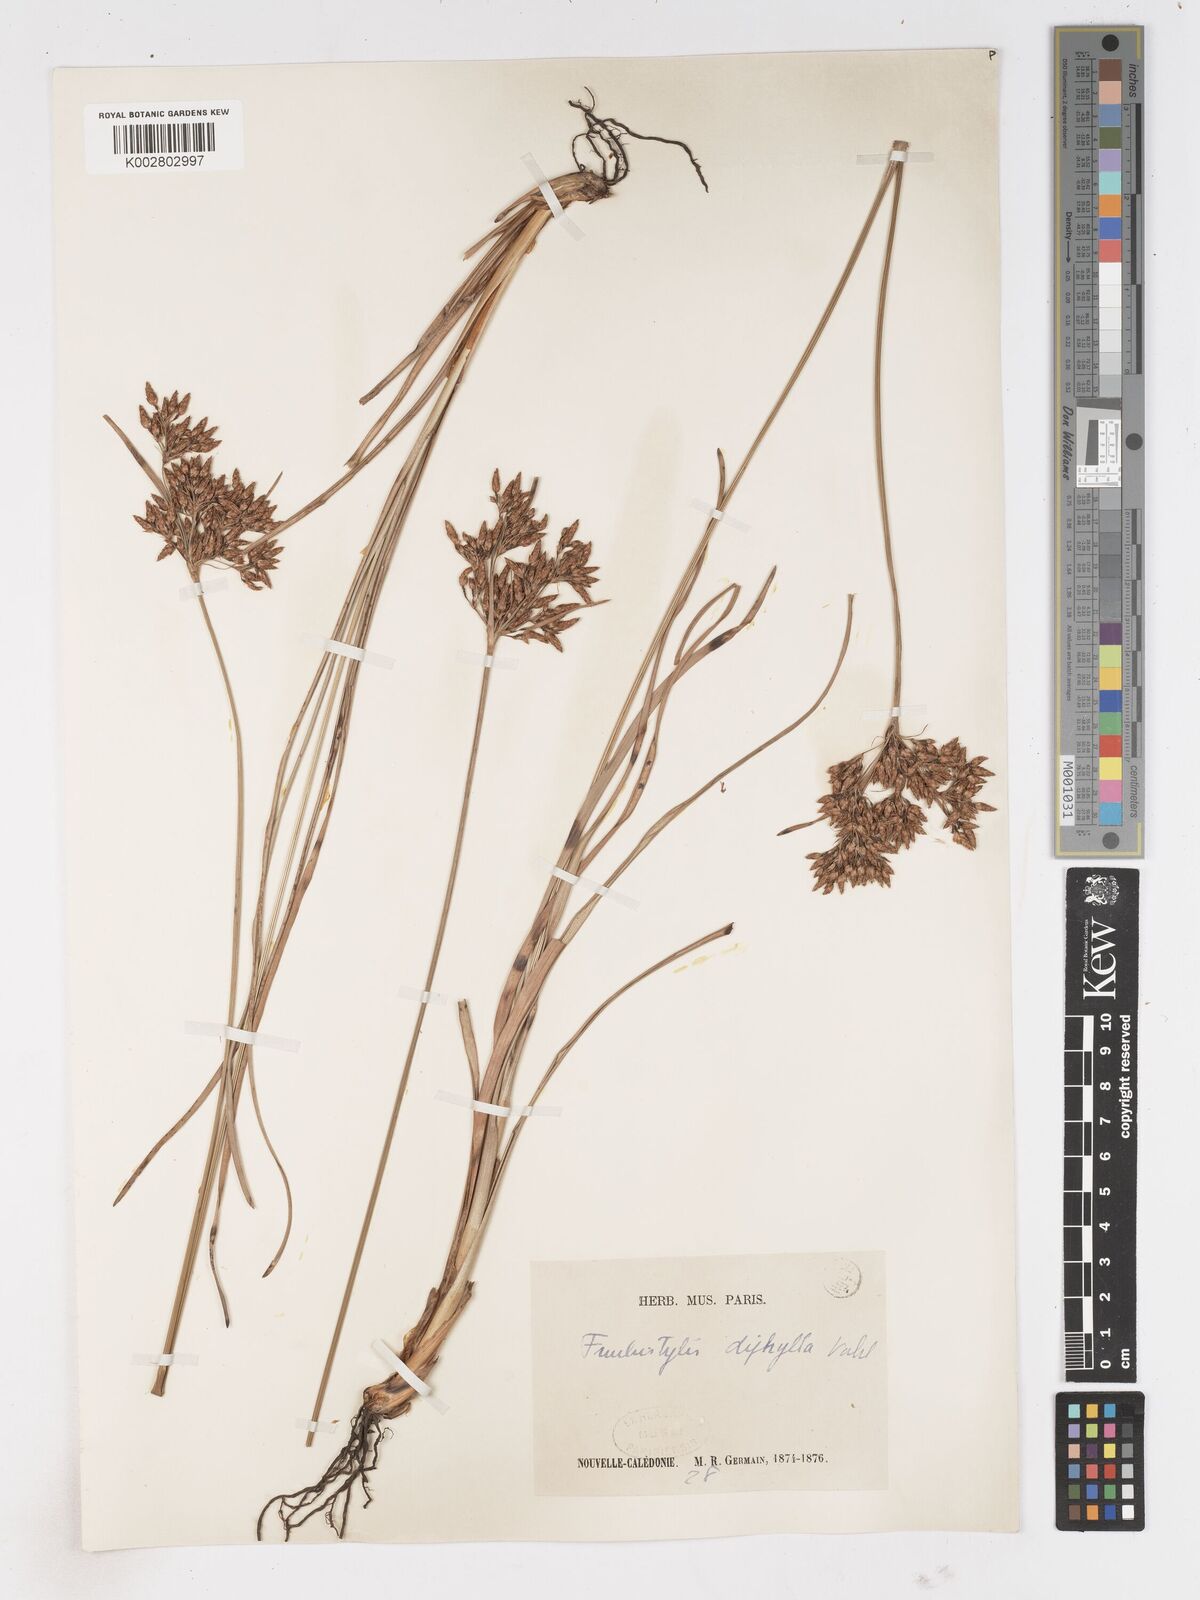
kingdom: Plantae
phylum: Tracheophyta
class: Liliopsida
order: Poales
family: Cyperaceae
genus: Fimbristylis
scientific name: Fimbristylis dichotoma
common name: Forked fimbry
